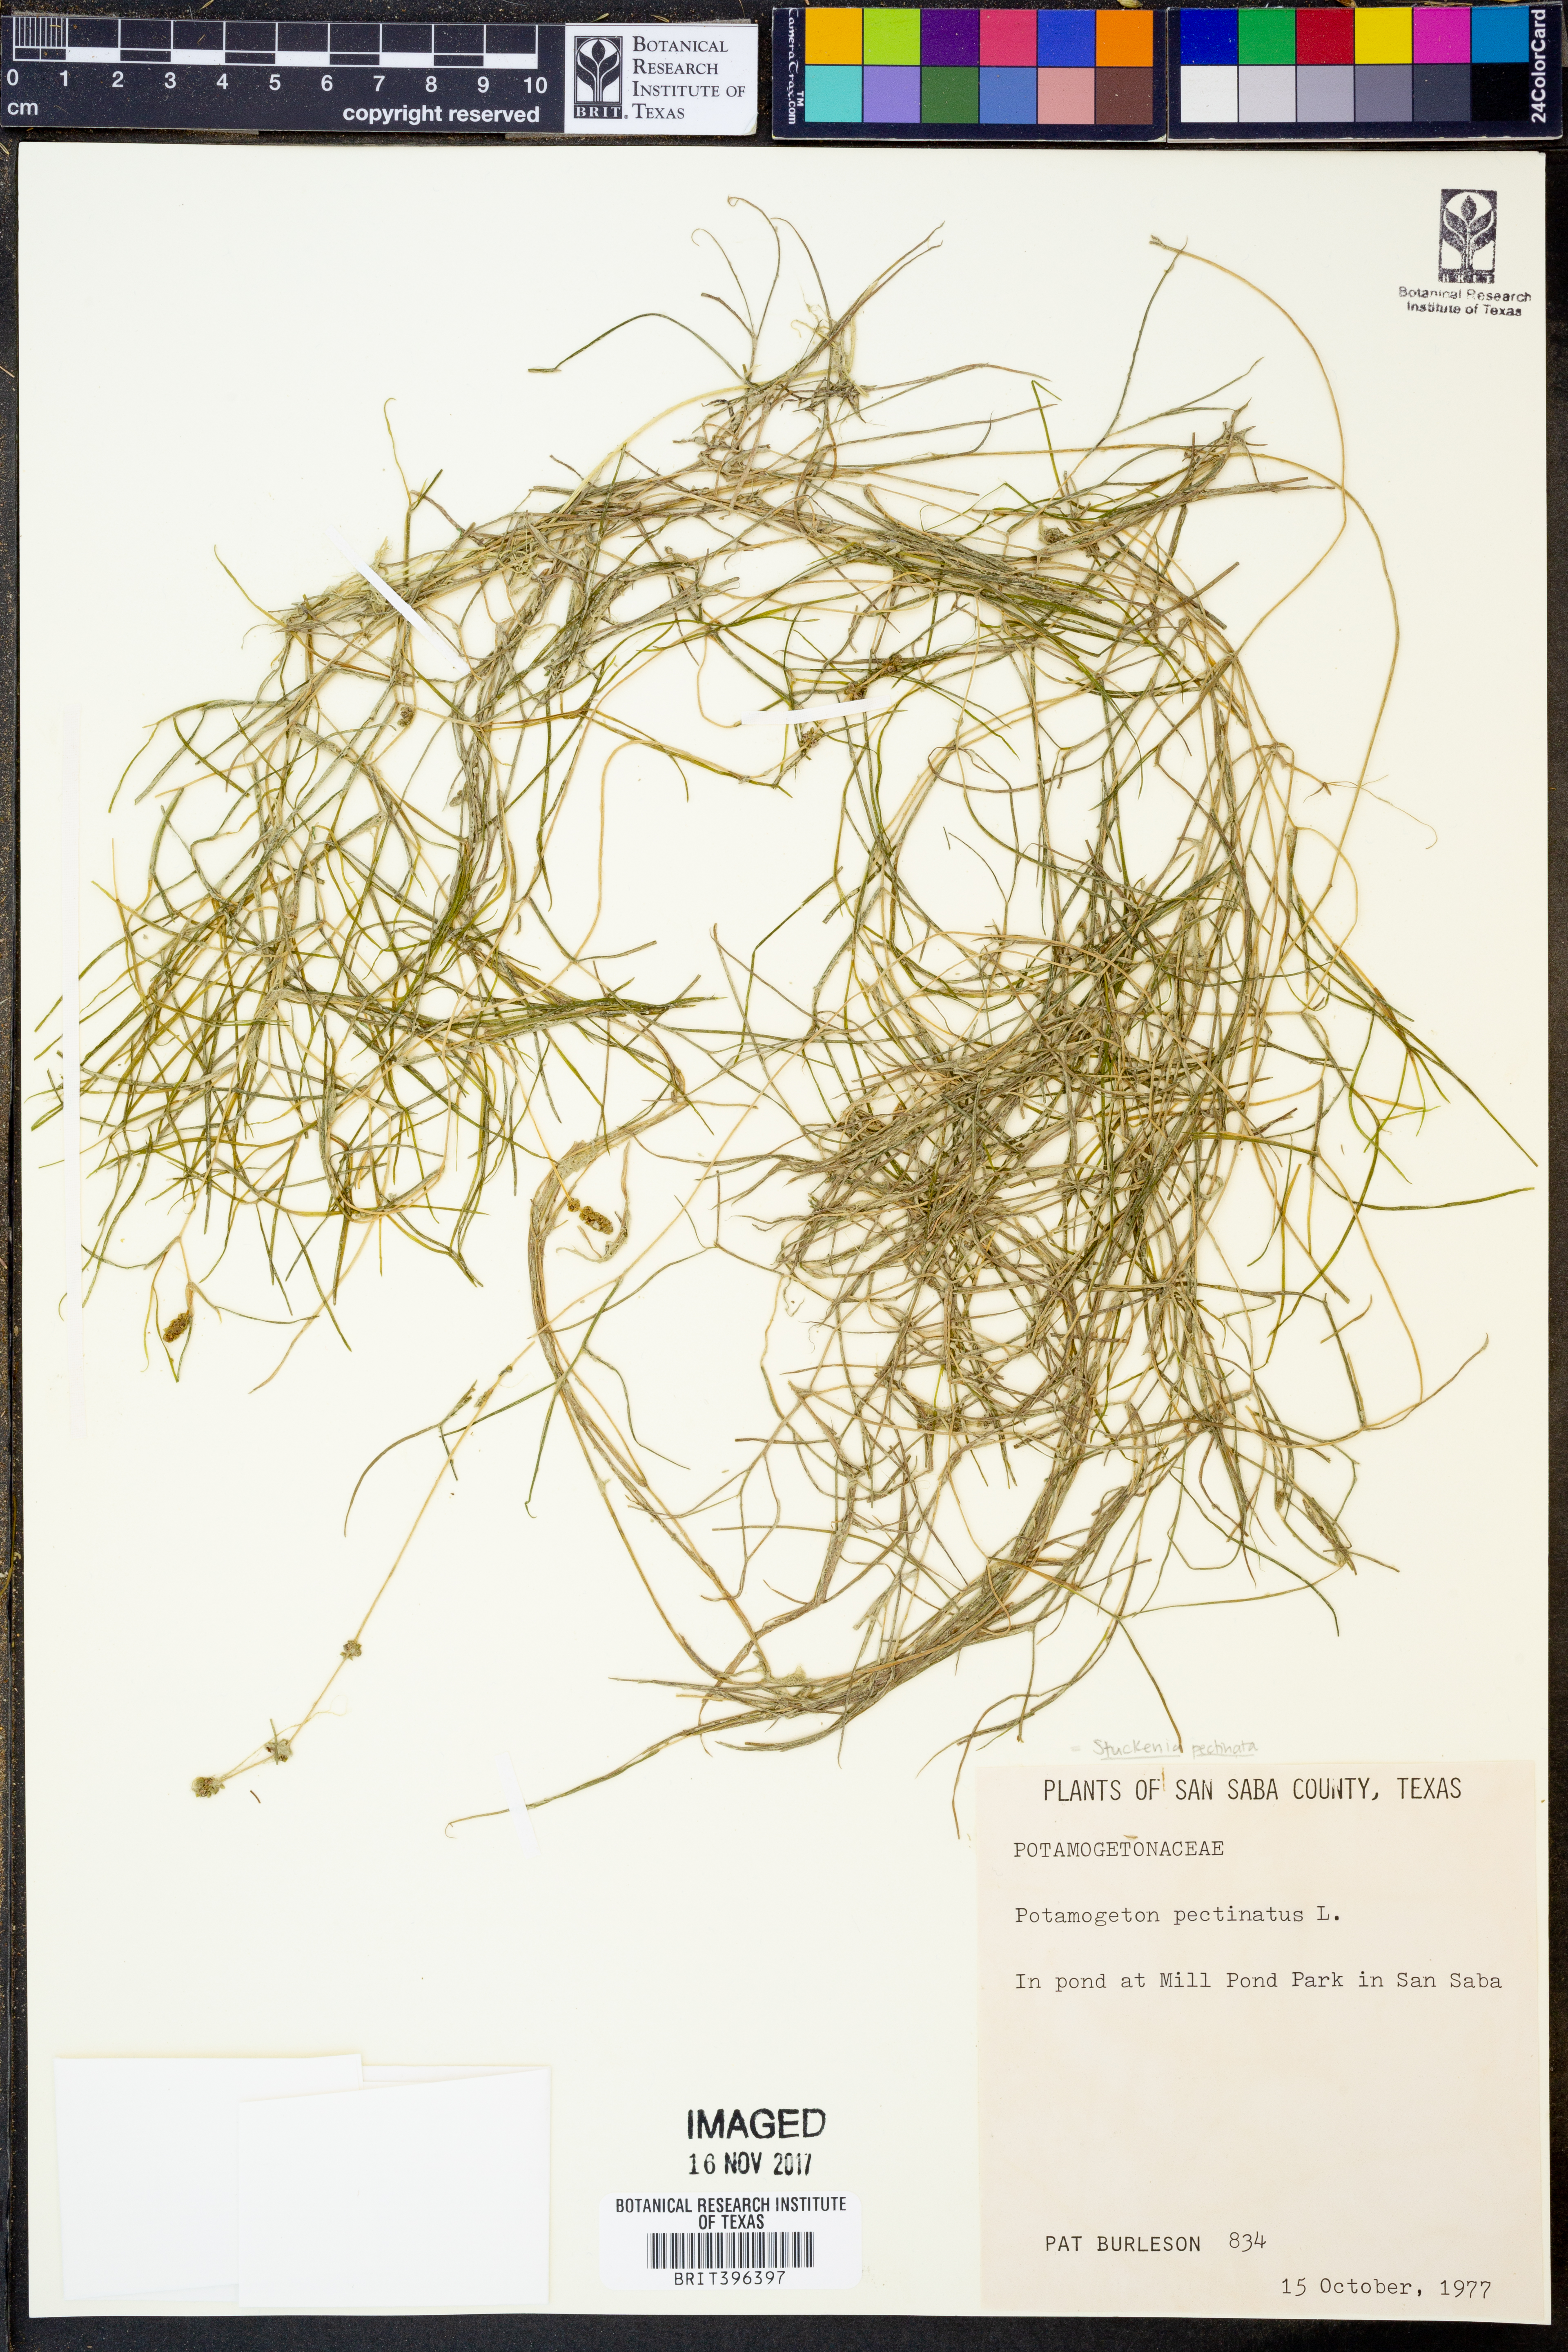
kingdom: Plantae
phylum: Tracheophyta
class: Liliopsida
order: Alismatales
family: Potamogetonaceae
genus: Stuckenia
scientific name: Stuckenia pectinata
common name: Sago pondweed
